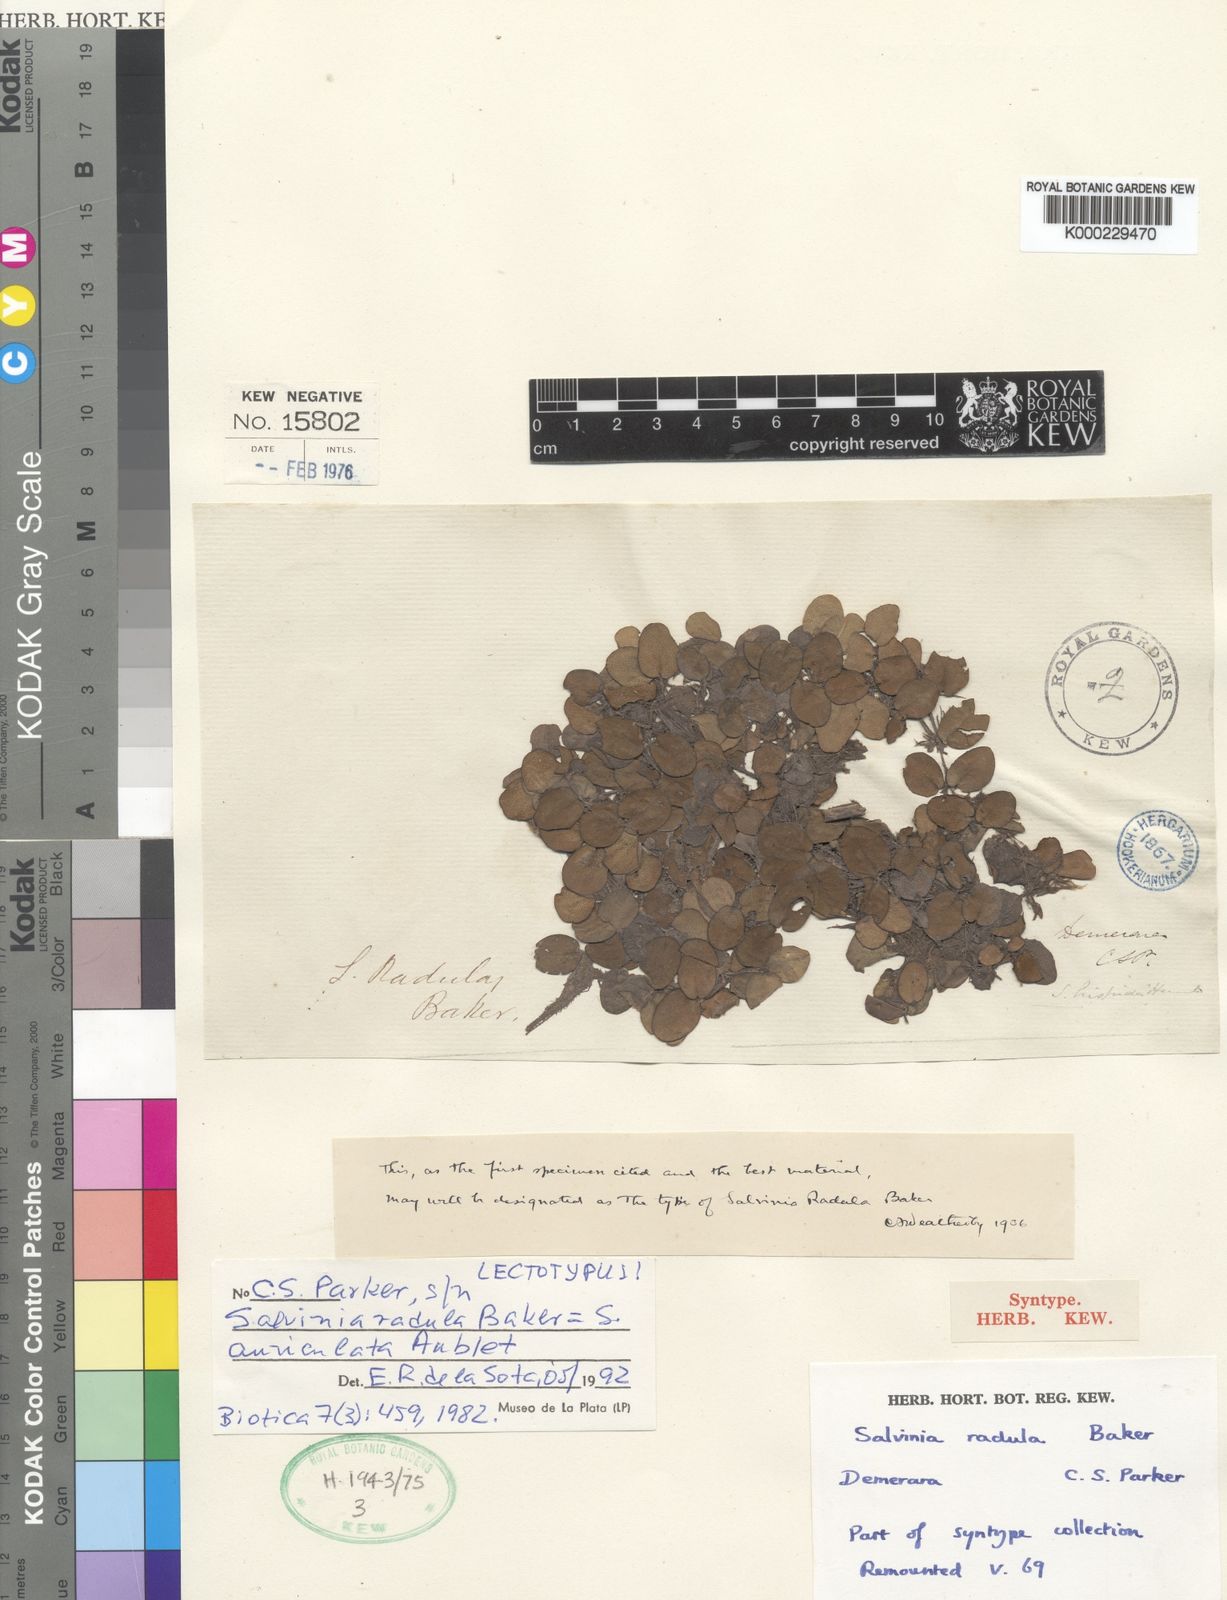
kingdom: Plantae
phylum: Tracheophyta
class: Polypodiopsida
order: Salviniales
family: Salviniaceae
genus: Salvinia
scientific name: Salvinia auriculata
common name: African payal
